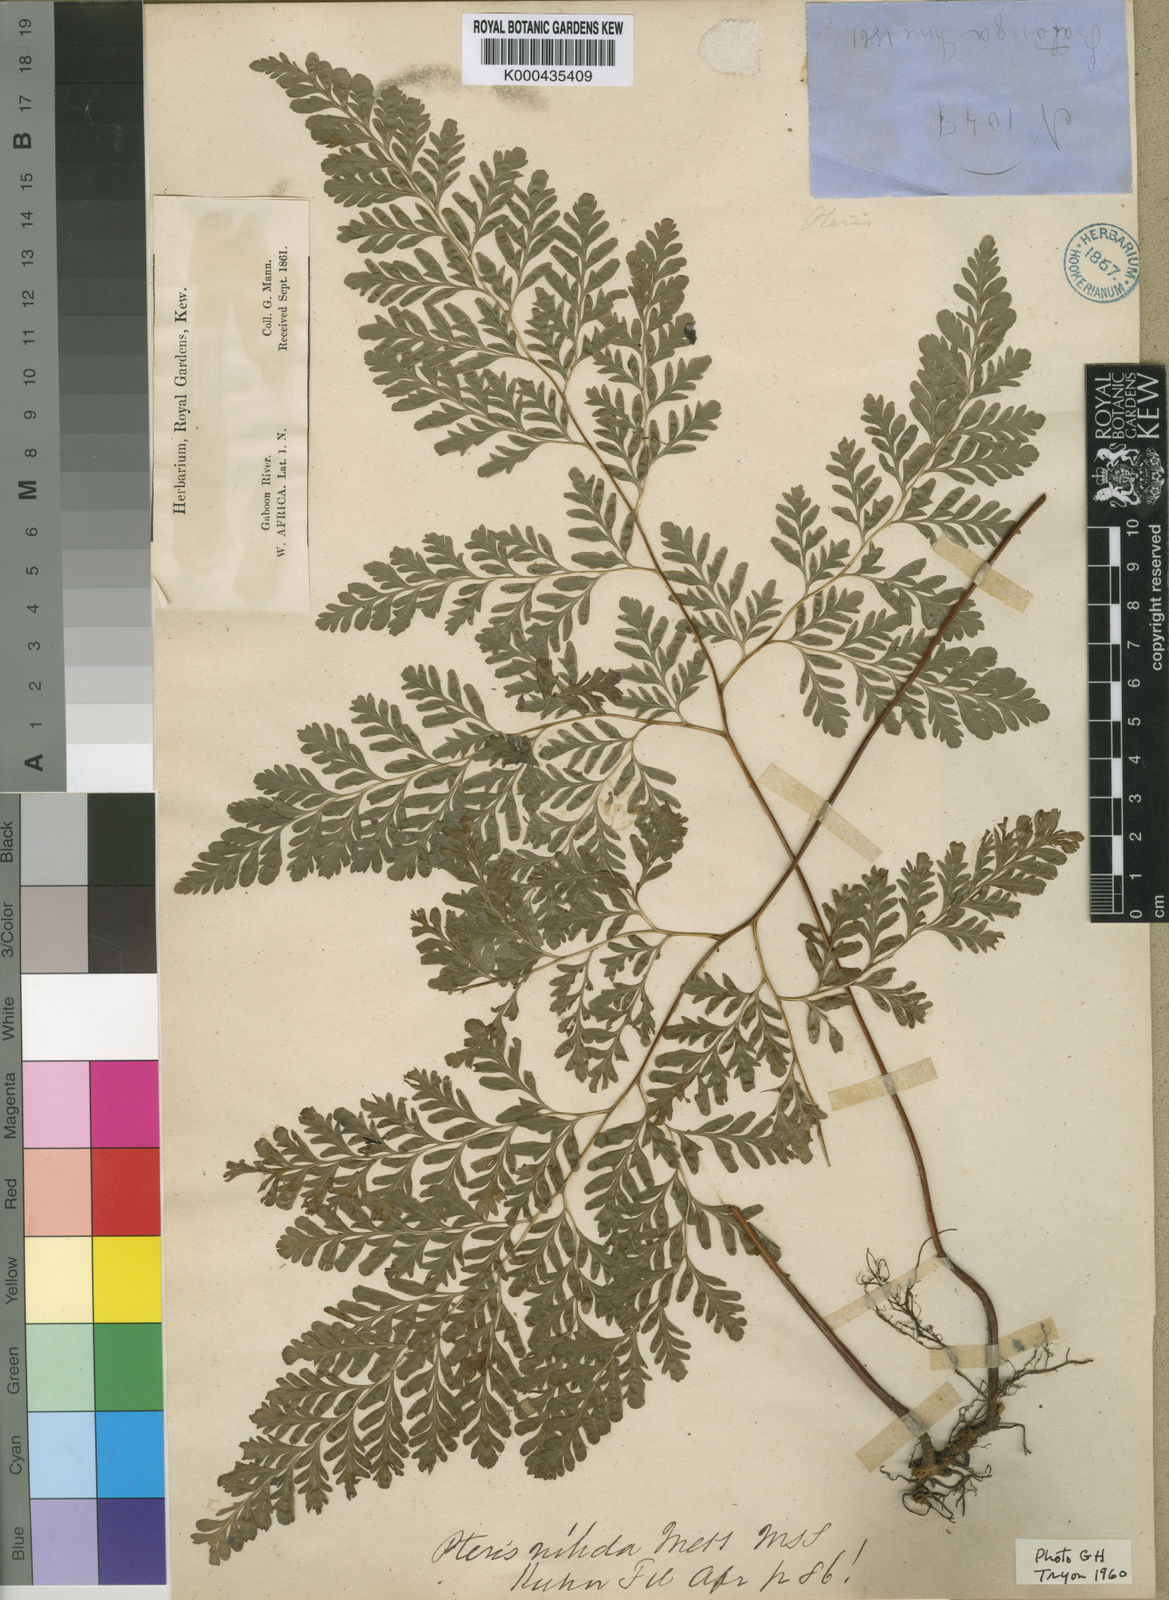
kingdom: Plantae
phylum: Tracheophyta
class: Polypodiopsida
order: Polypodiales
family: Pteridaceae
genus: Pteris
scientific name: Pteris repens
